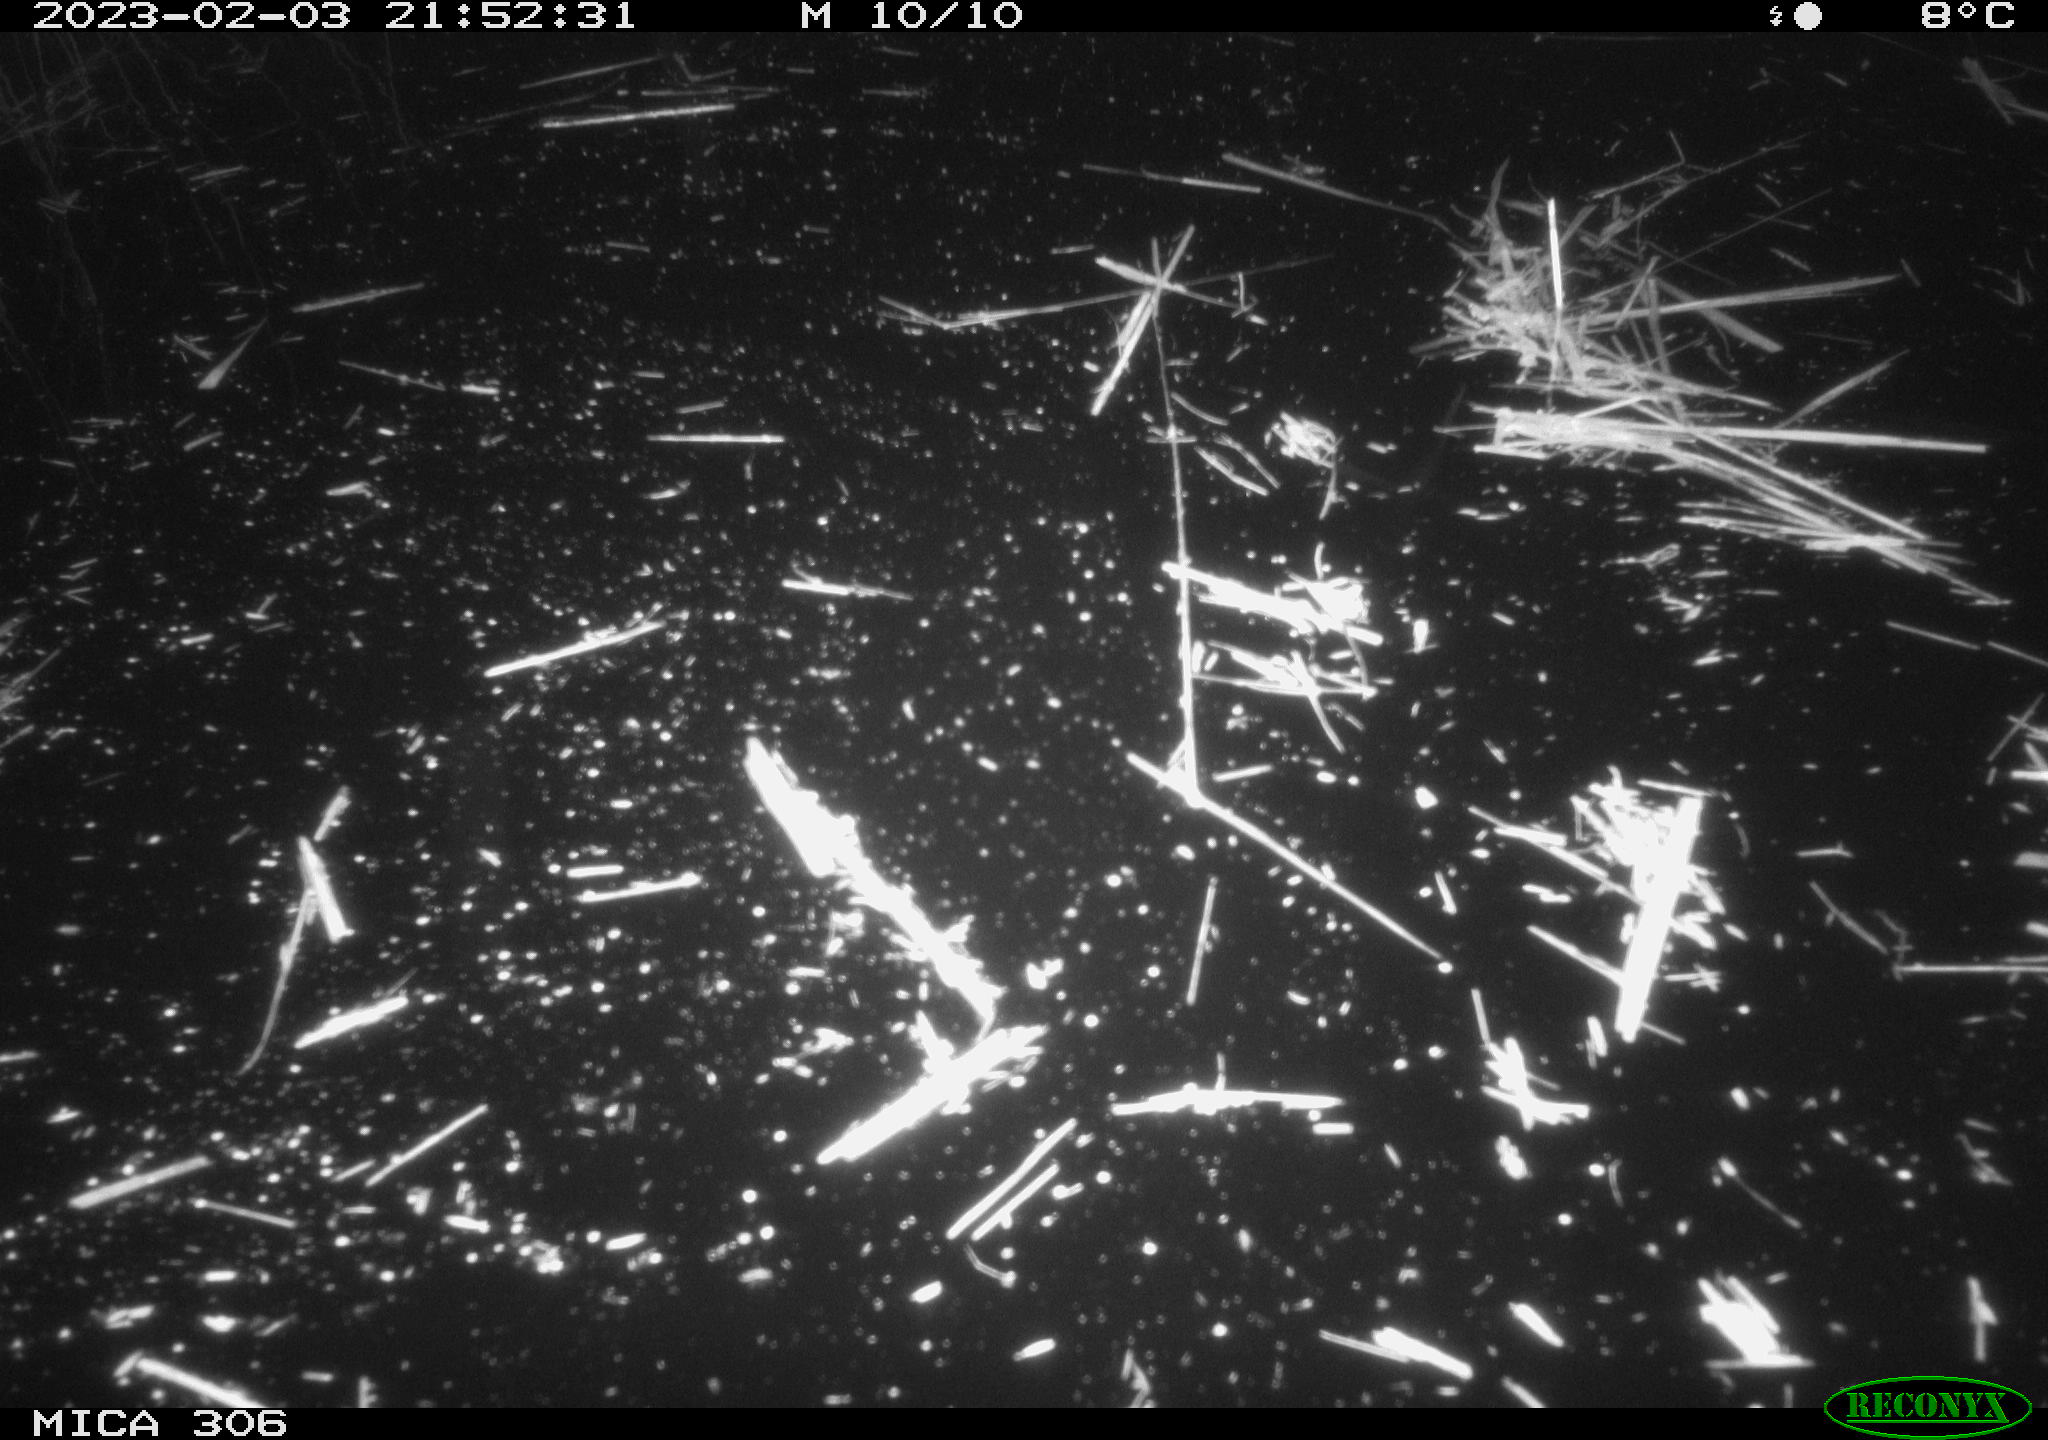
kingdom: Animalia
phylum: Chordata
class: Mammalia
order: Rodentia
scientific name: Rodentia
